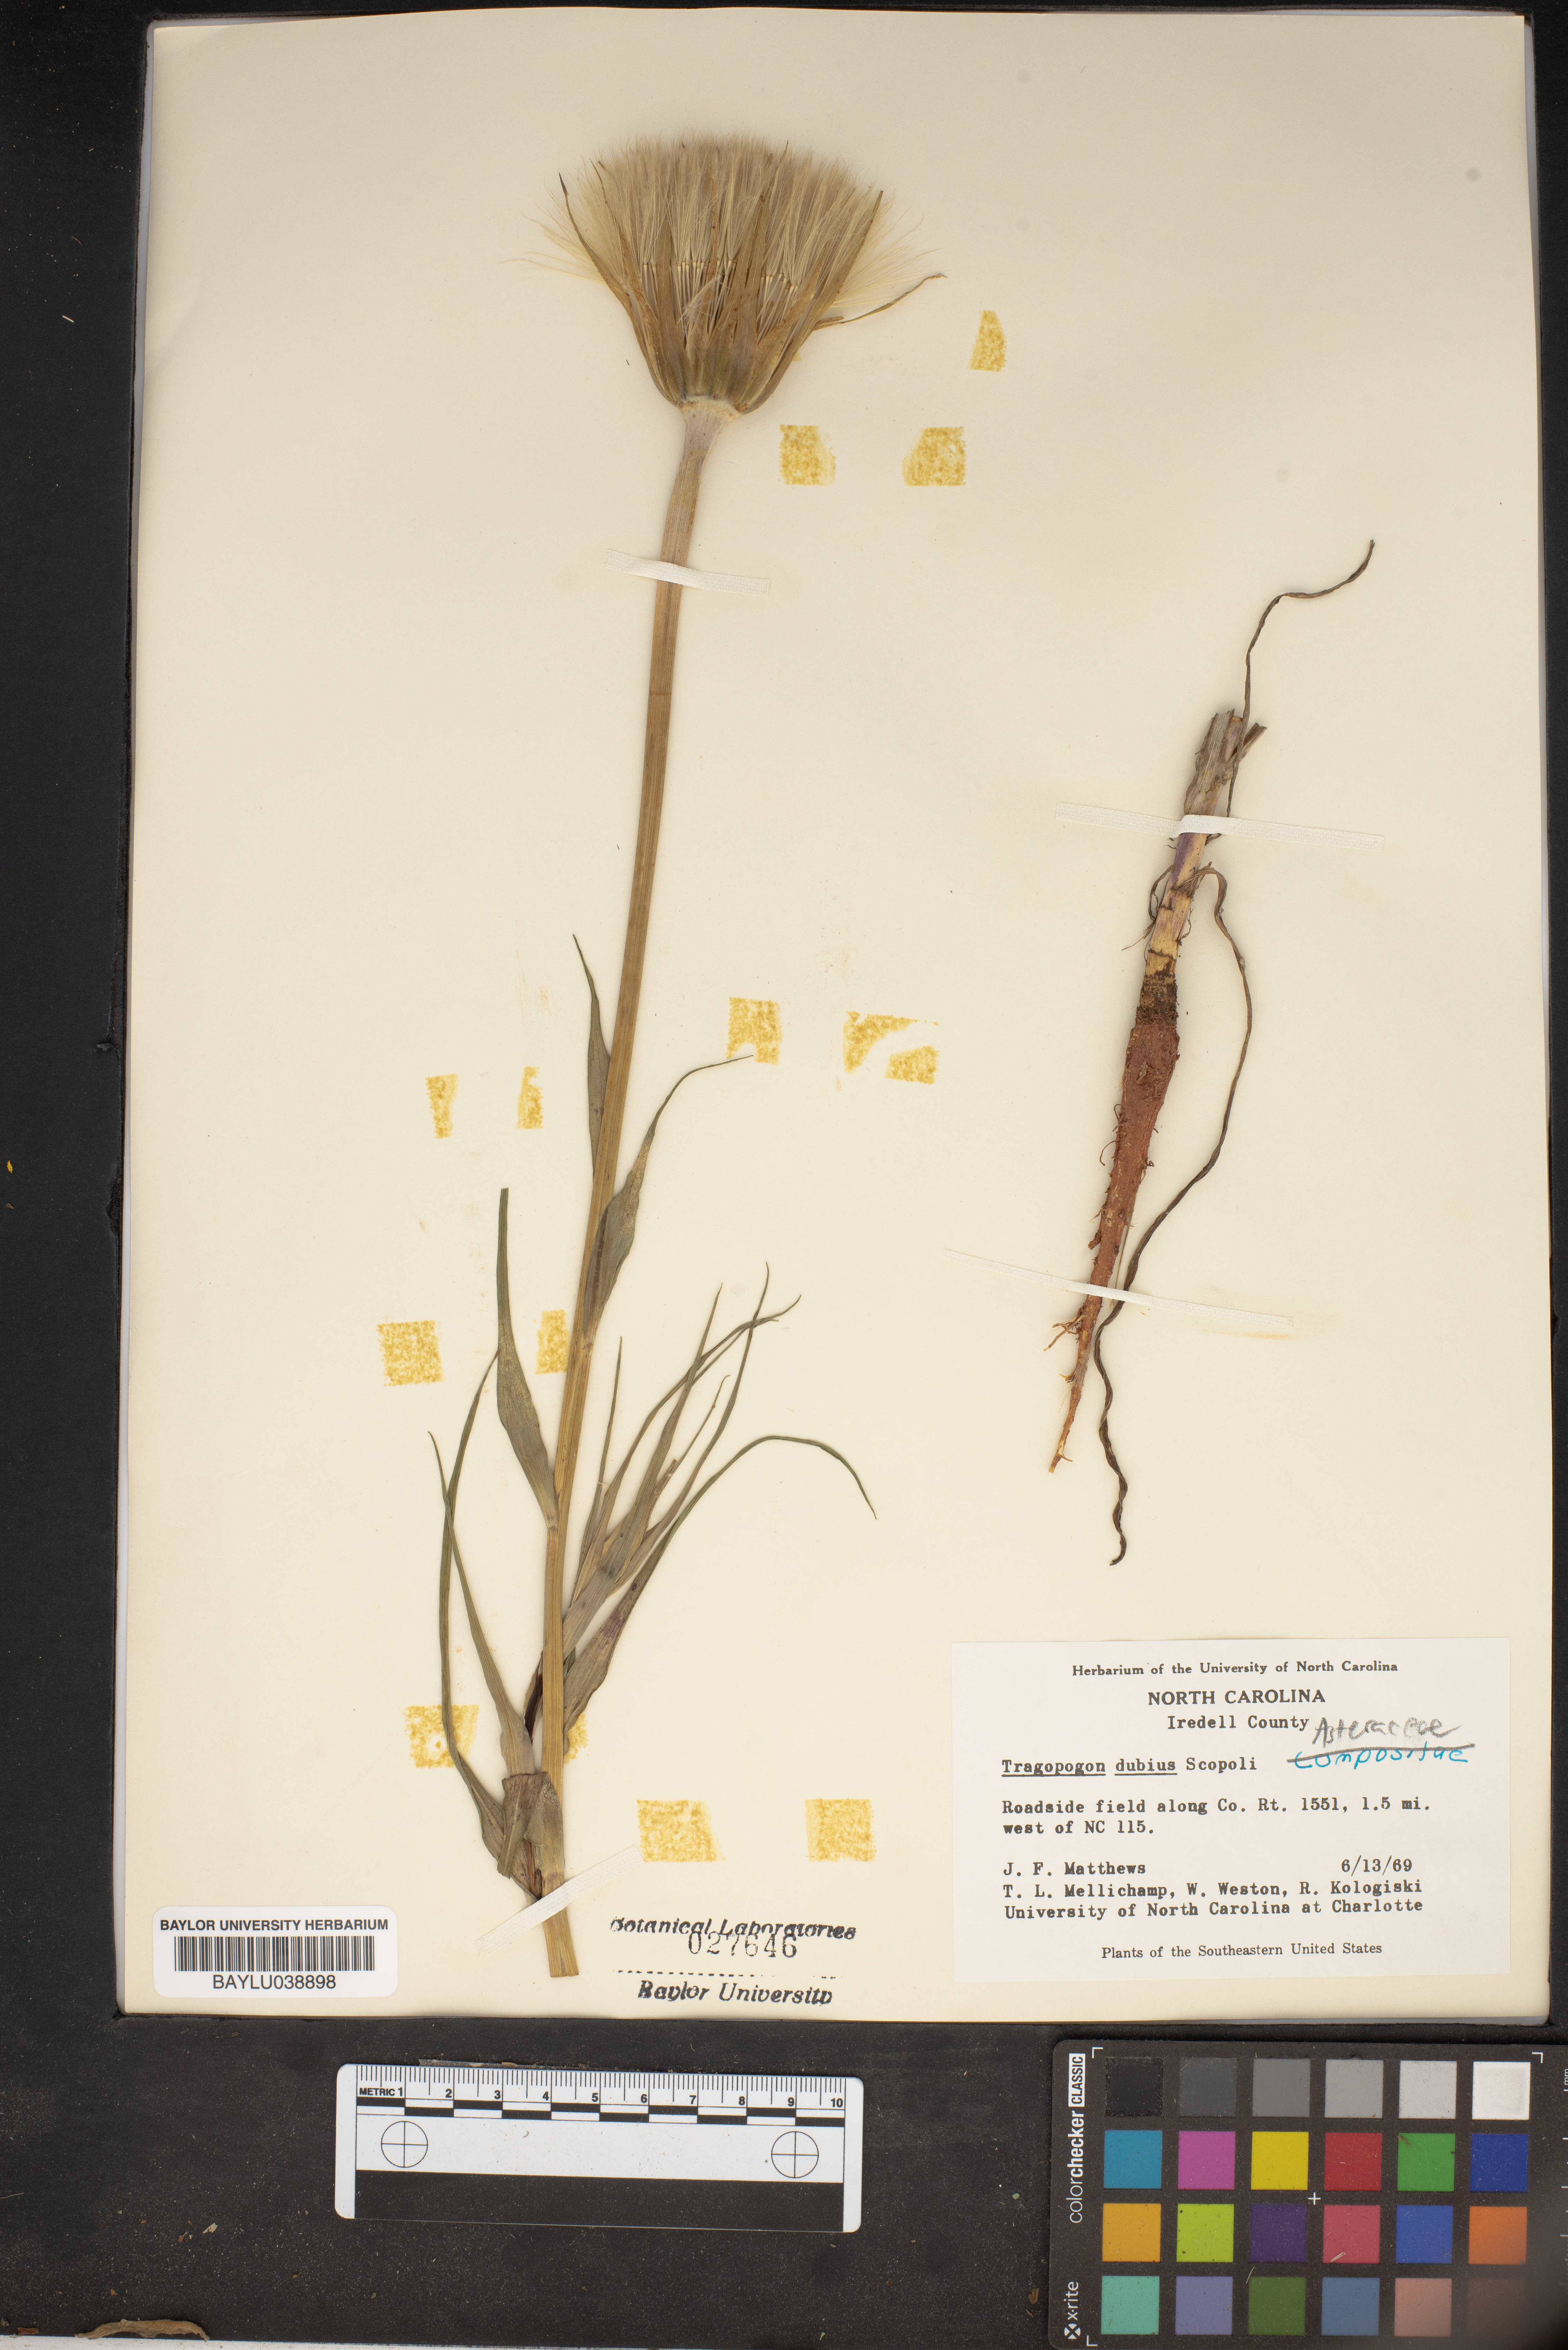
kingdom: Plantae
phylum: Tracheophyta
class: Magnoliopsida
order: Asterales
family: Asteraceae
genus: Tragopogon
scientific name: Tragopogon dubius
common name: Yellow salsify
